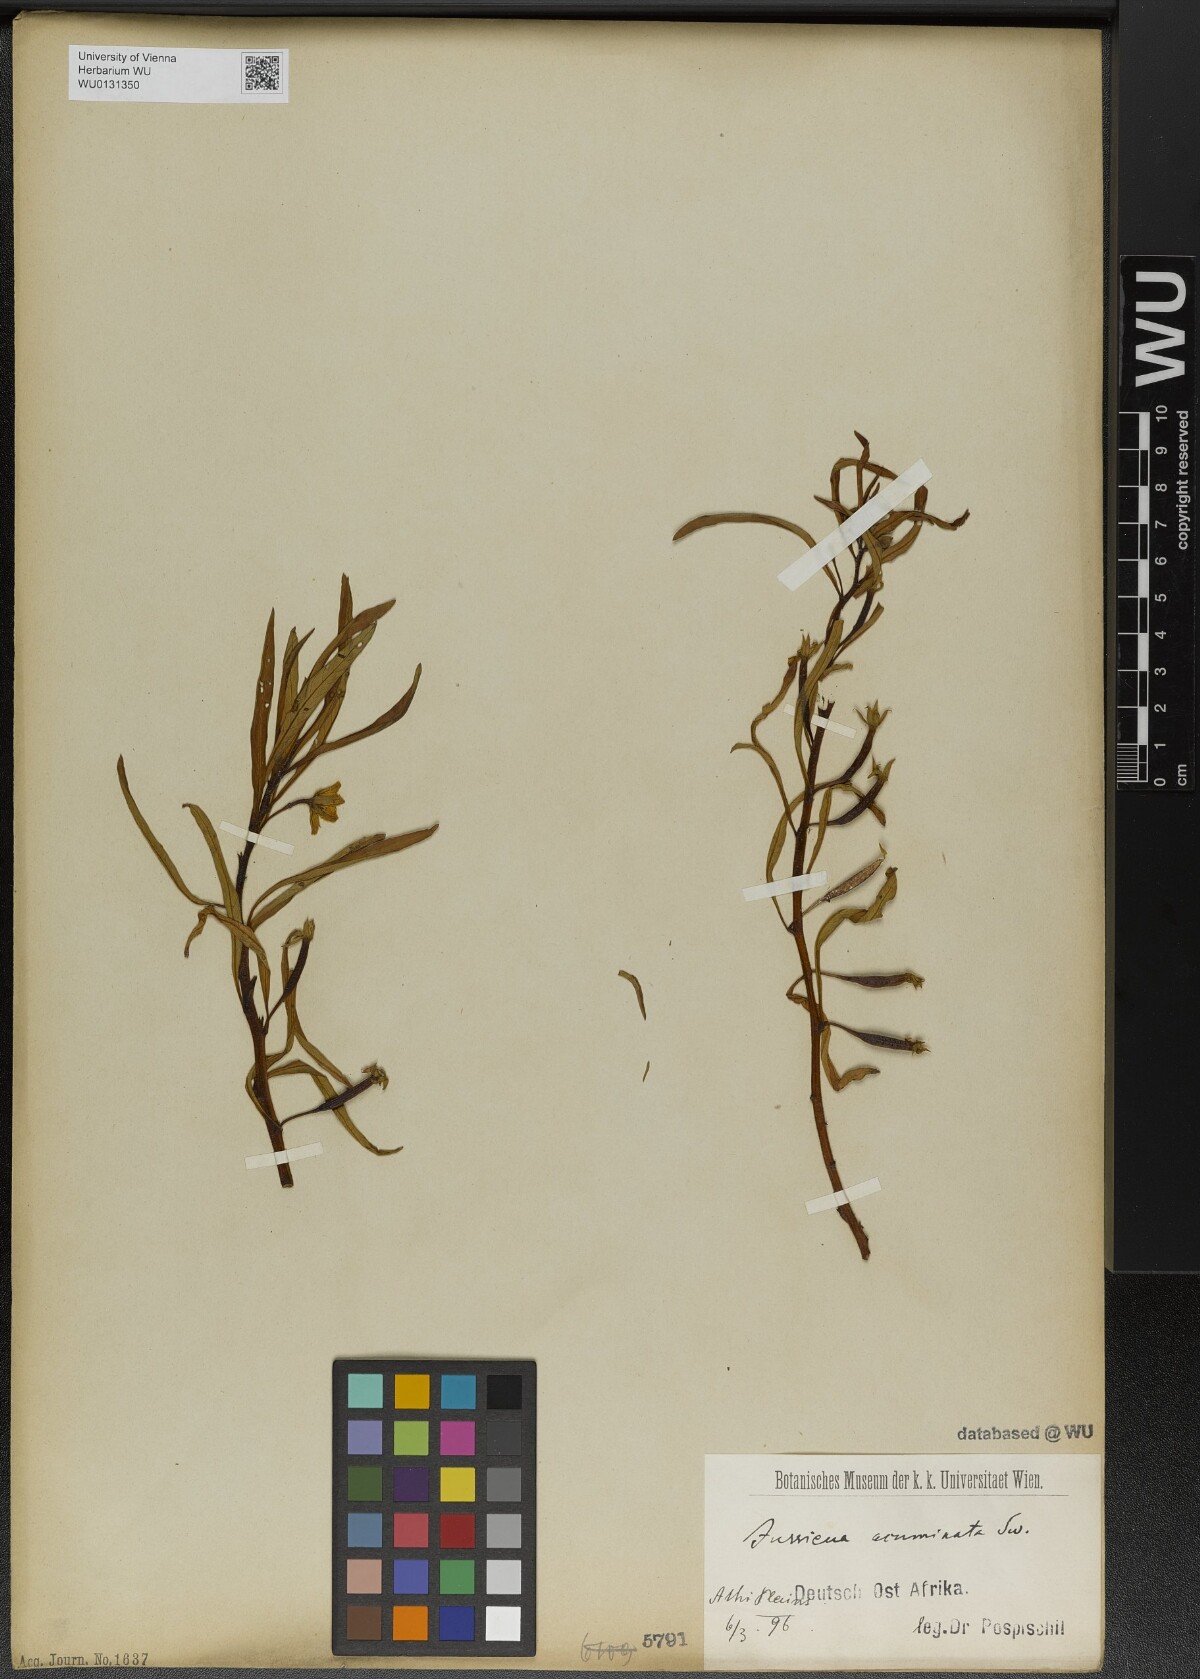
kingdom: Plantae
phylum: Tracheophyta
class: Magnoliopsida
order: Myrtales
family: Onagraceae
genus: Ludwigia
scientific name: Ludwigia erecta
